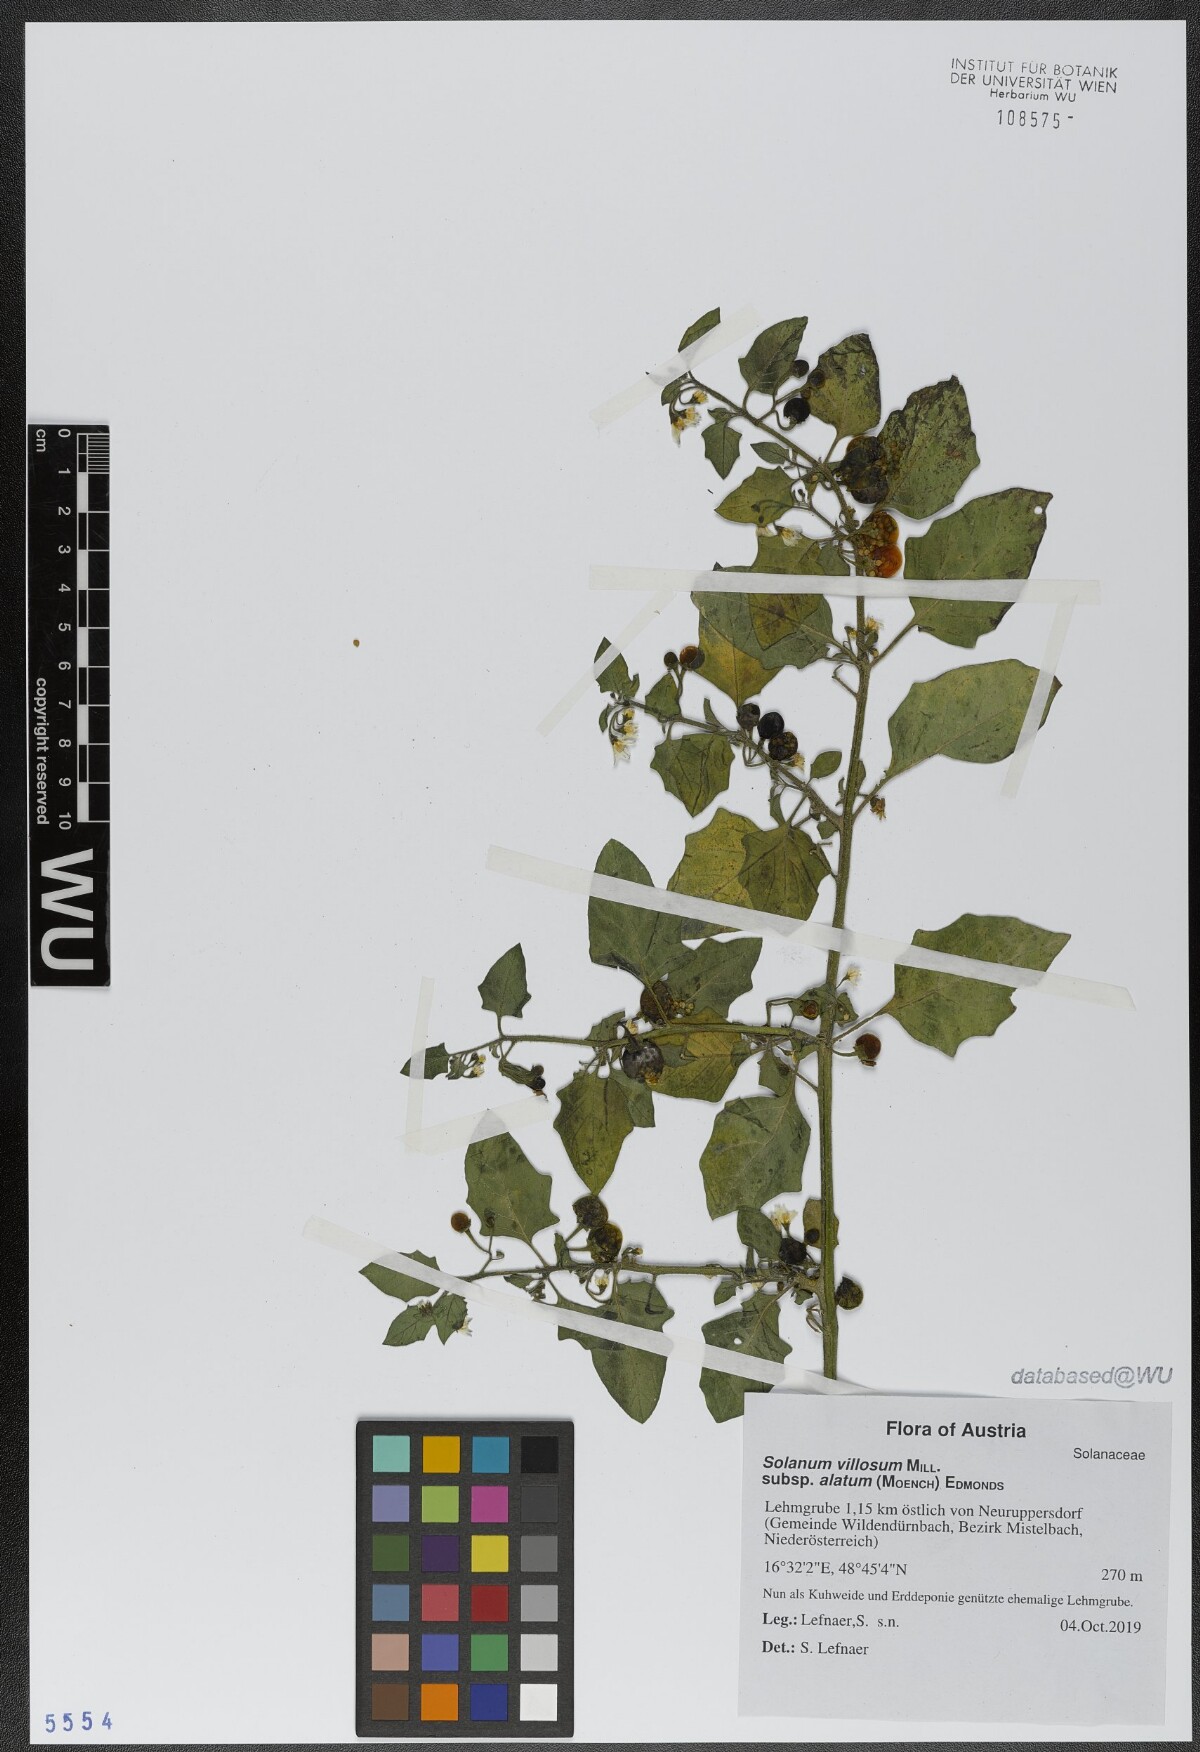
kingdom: Plantae
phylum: Tracheophyta
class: Magnoliopsida
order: Solanales
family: Solanaceae
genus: Solanum
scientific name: Solanum alatum
